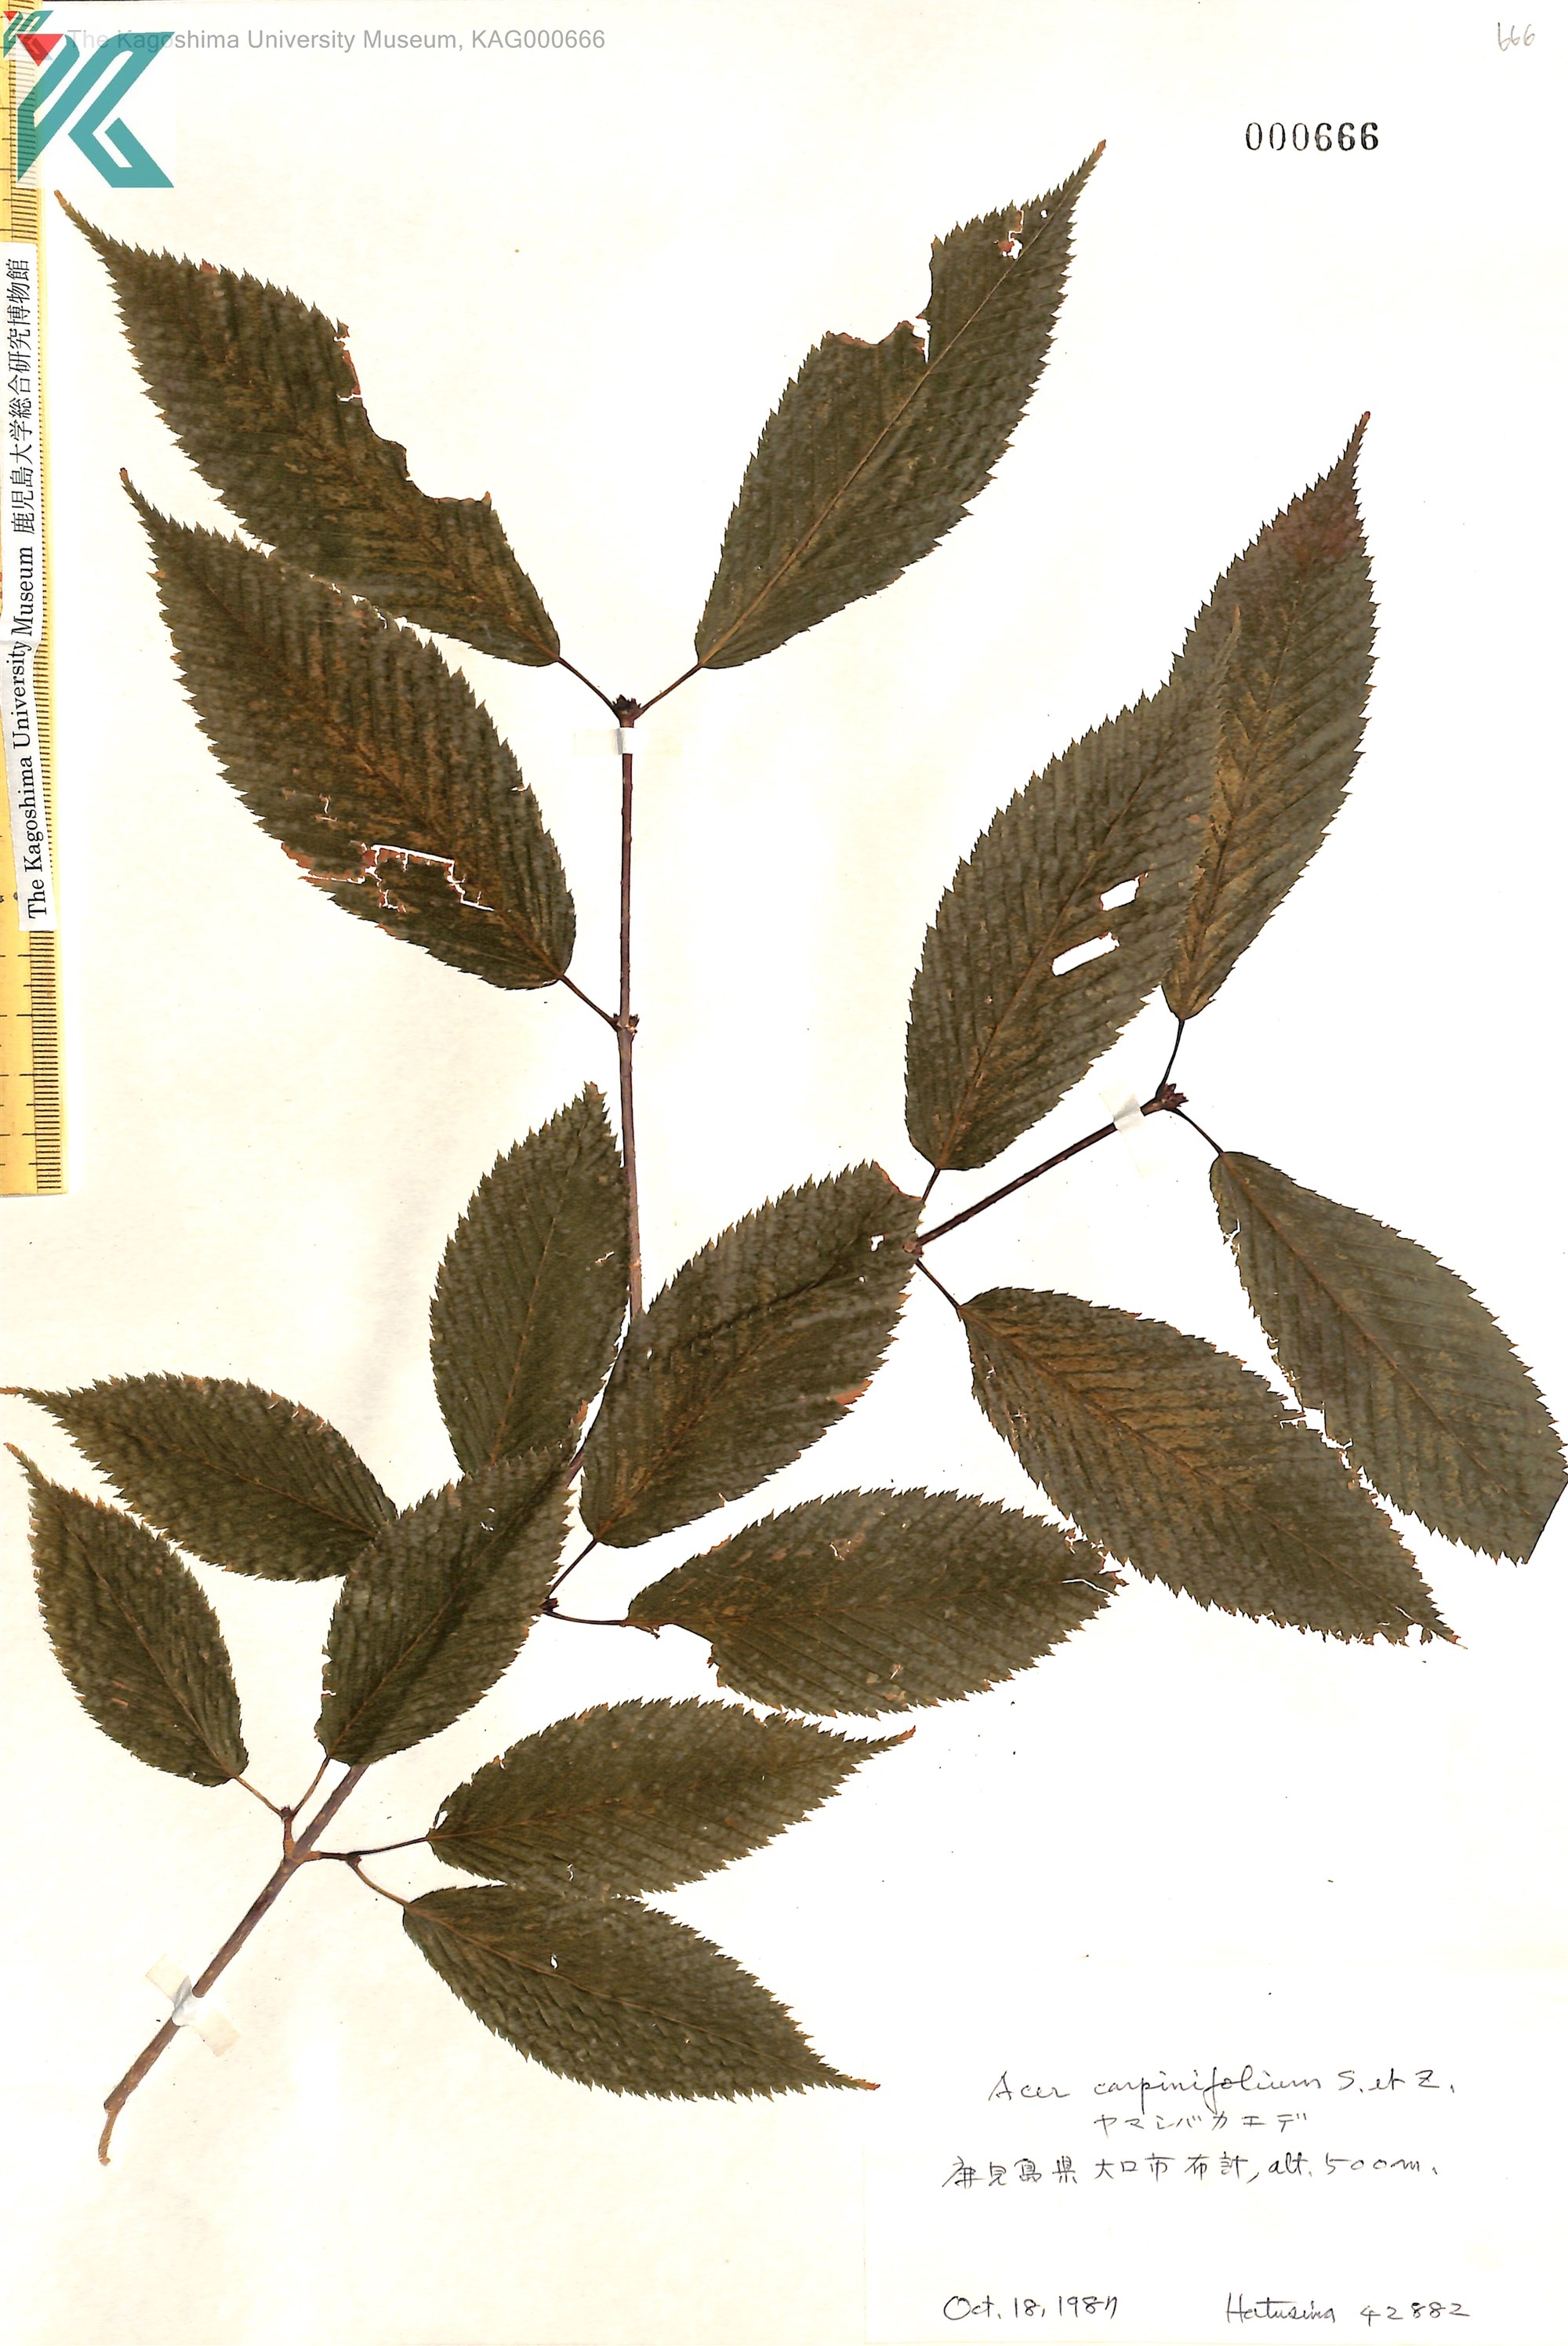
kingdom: Plantae
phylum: Tracheophyta
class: Magnoliopsida
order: Sapindales
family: Sapindaceae
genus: Acer
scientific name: Acer carpinifolium
